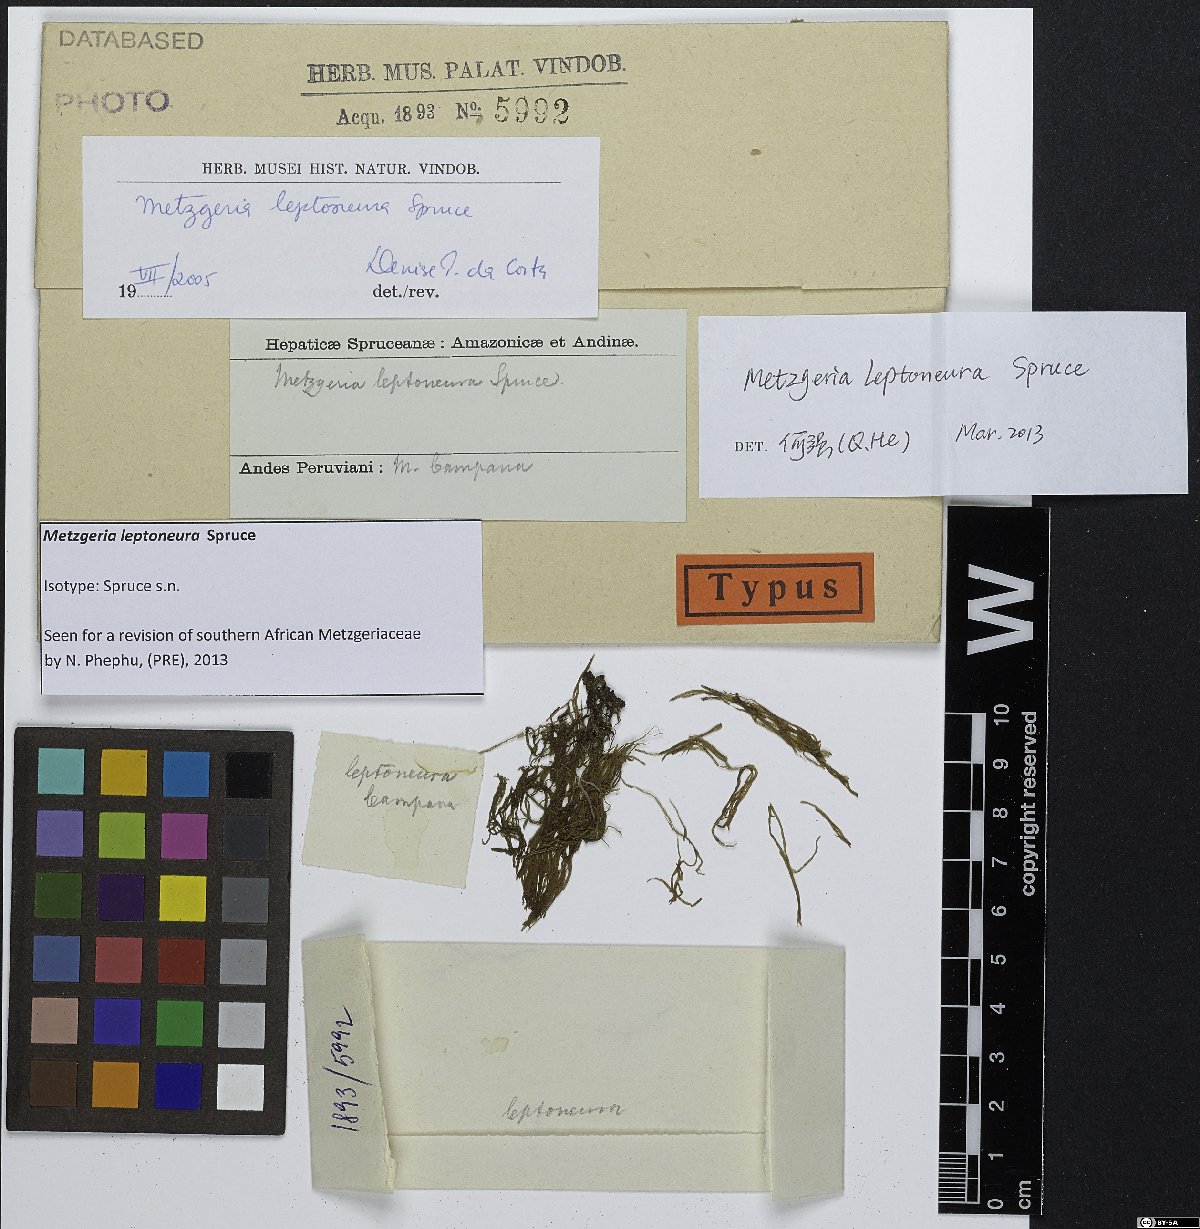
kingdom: Plantae
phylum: Marchantiophyta
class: Jungermanniopsida
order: Metzgeriales
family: Metzgeriaceae
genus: Metzgeria
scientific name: Metzgeria leptoneura
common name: Hooked veilwort
